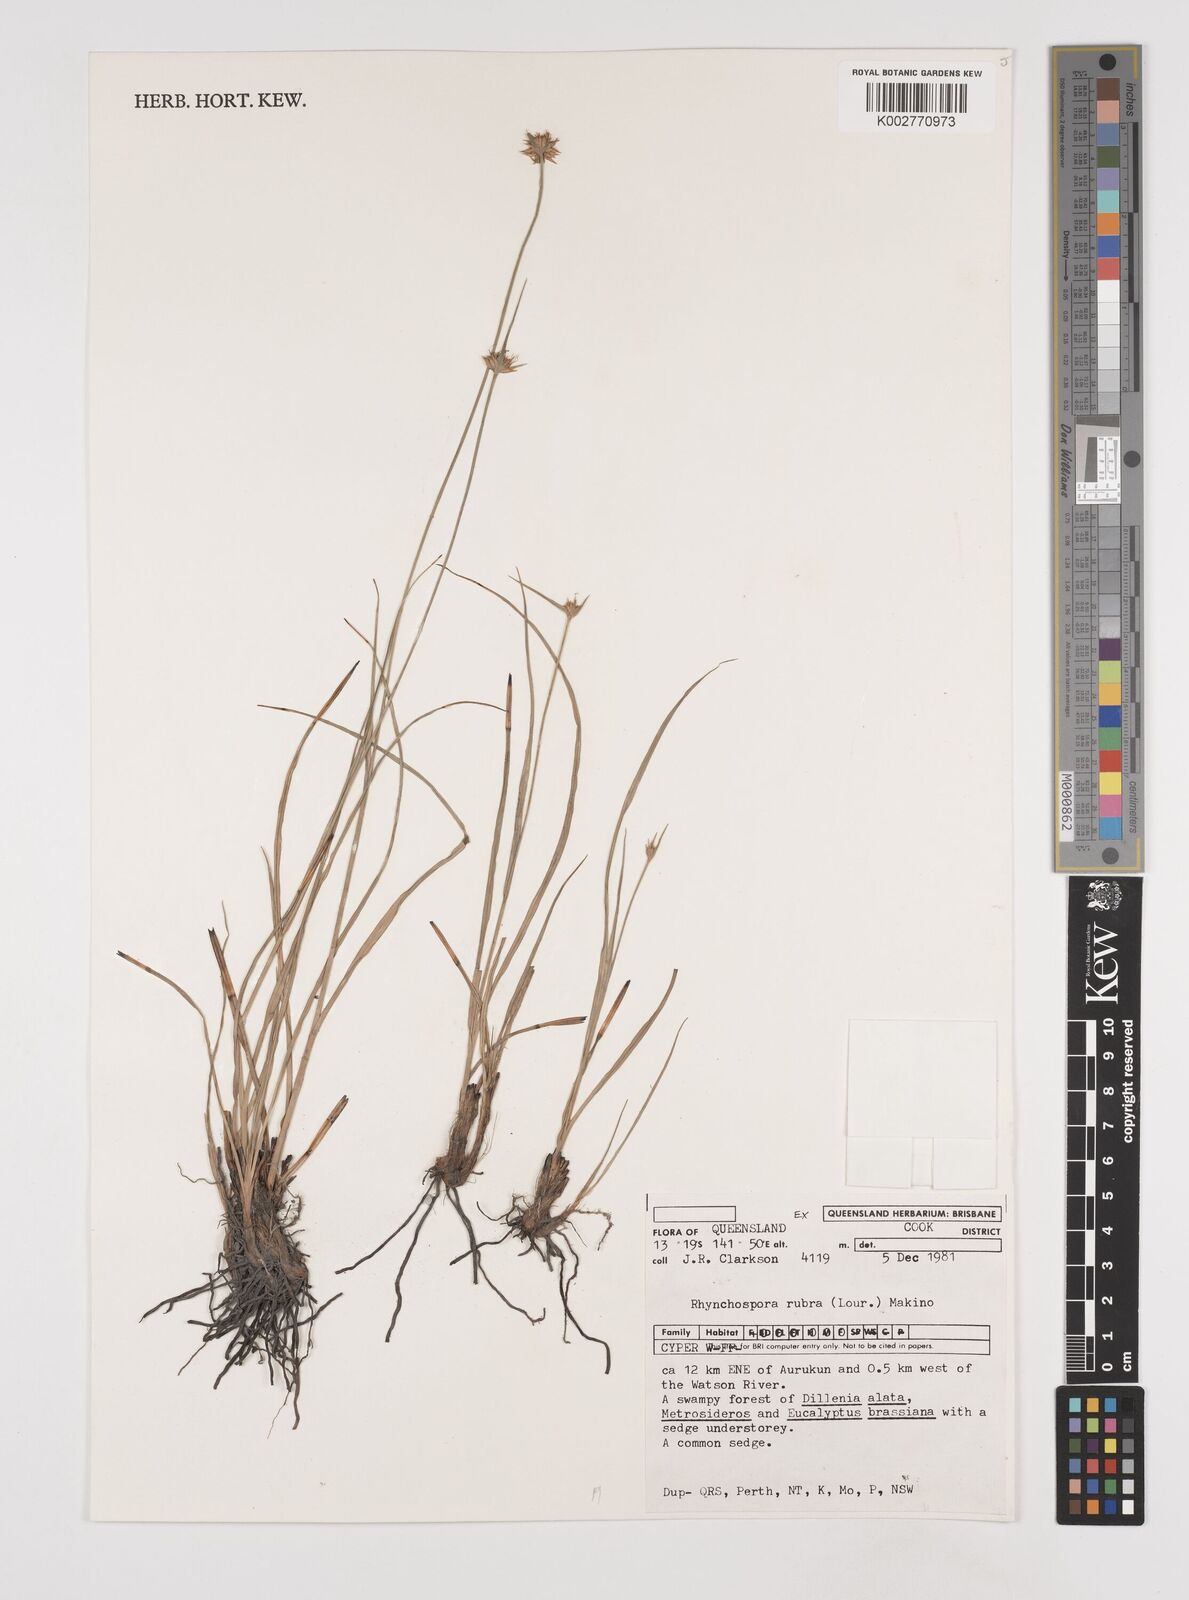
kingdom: Plantae
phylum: Tracheophyta
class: Liliopsida
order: Poales
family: Cyperaceae
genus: Rhynchospora
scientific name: Rhynchospora rubra
